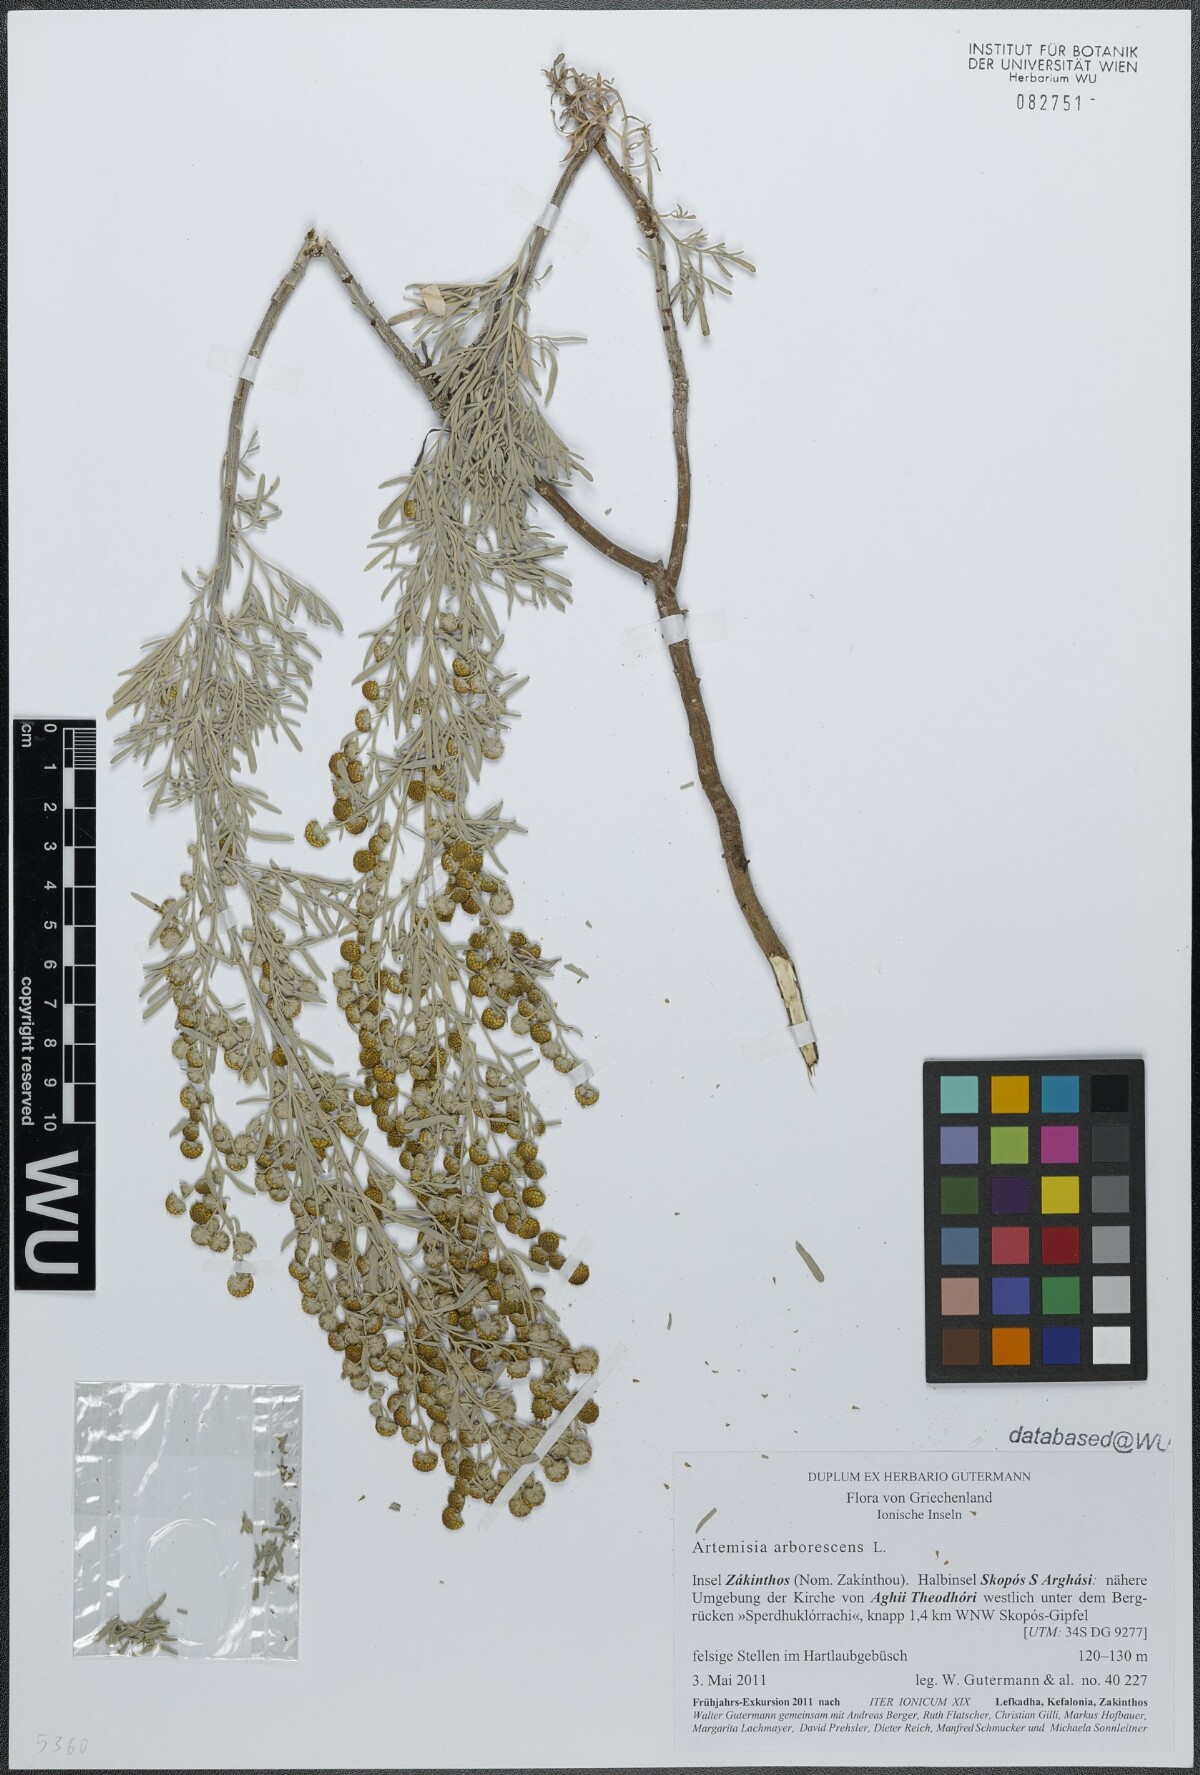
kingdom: Plantae
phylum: Tracheophyta
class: Magnoliopsida
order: Asterales
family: Asteraceae
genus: Artemisia
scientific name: Artemisia arborescens
